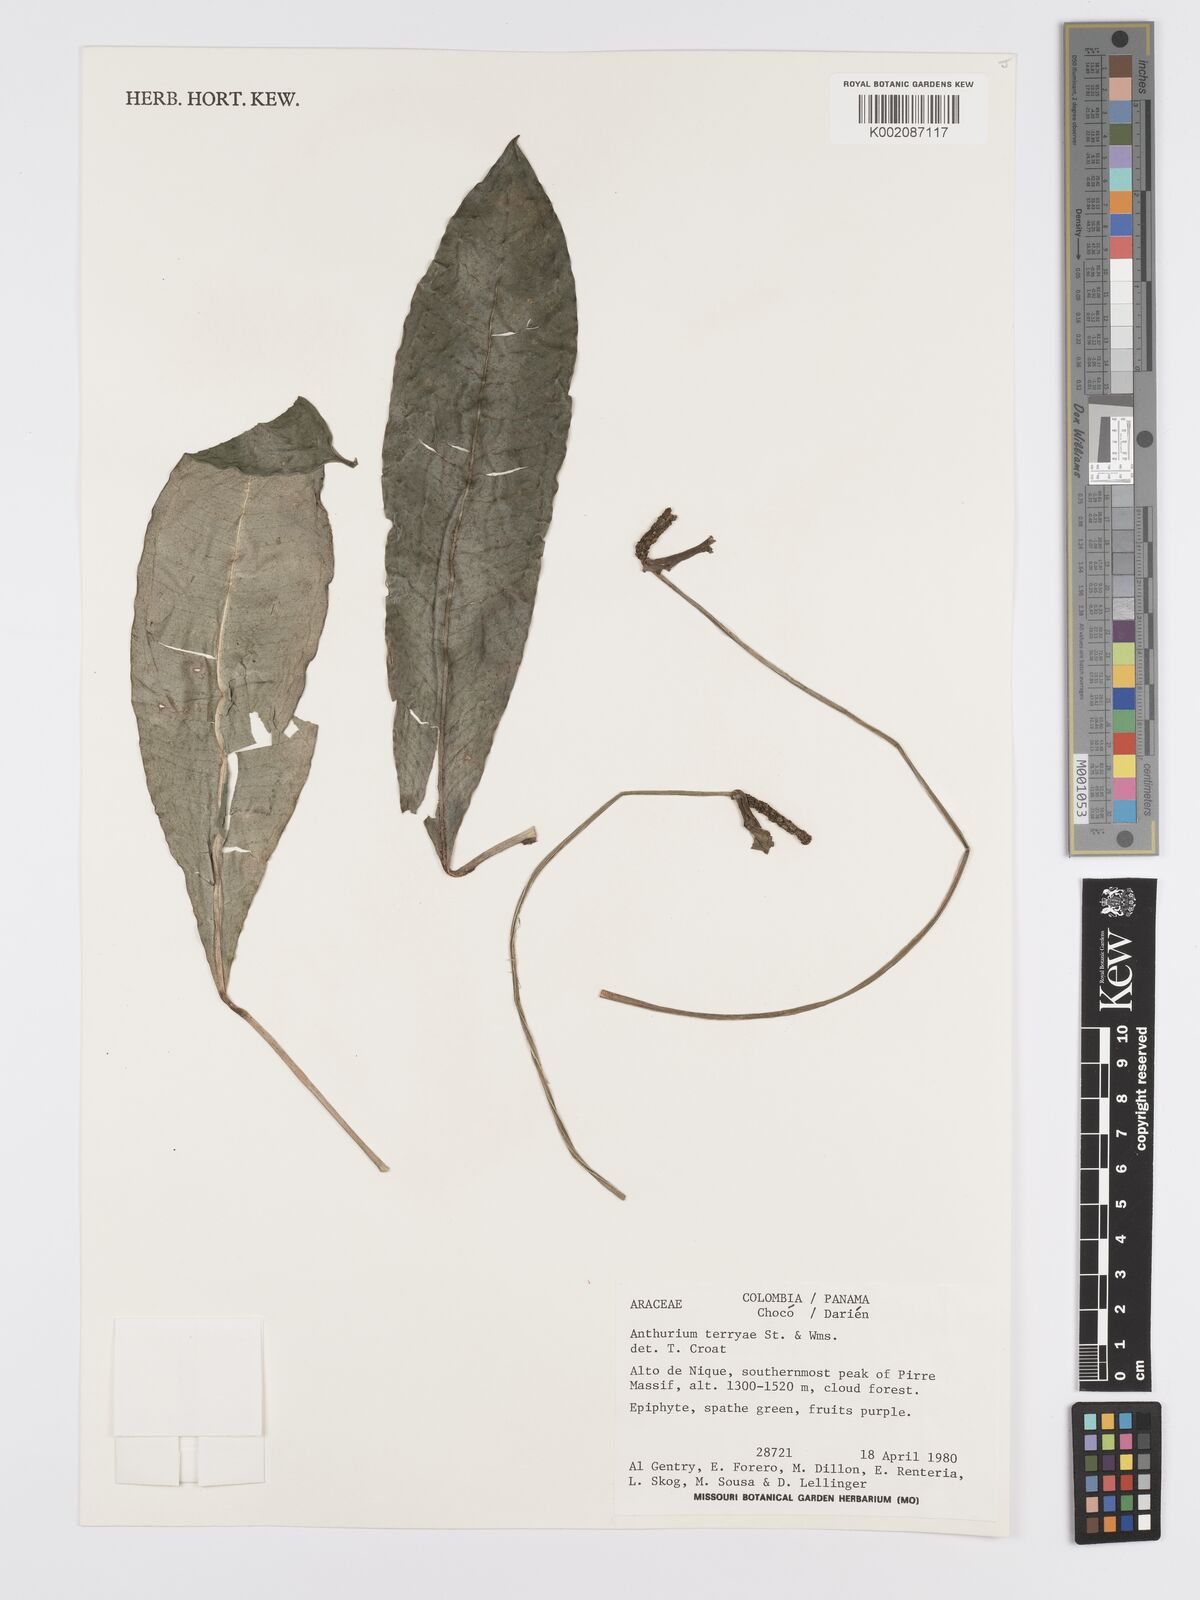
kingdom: Plantae
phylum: Tracheophyta
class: Liliopsida
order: Alismatales
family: Araceae
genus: Anthurium
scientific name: Anthurium terryae
